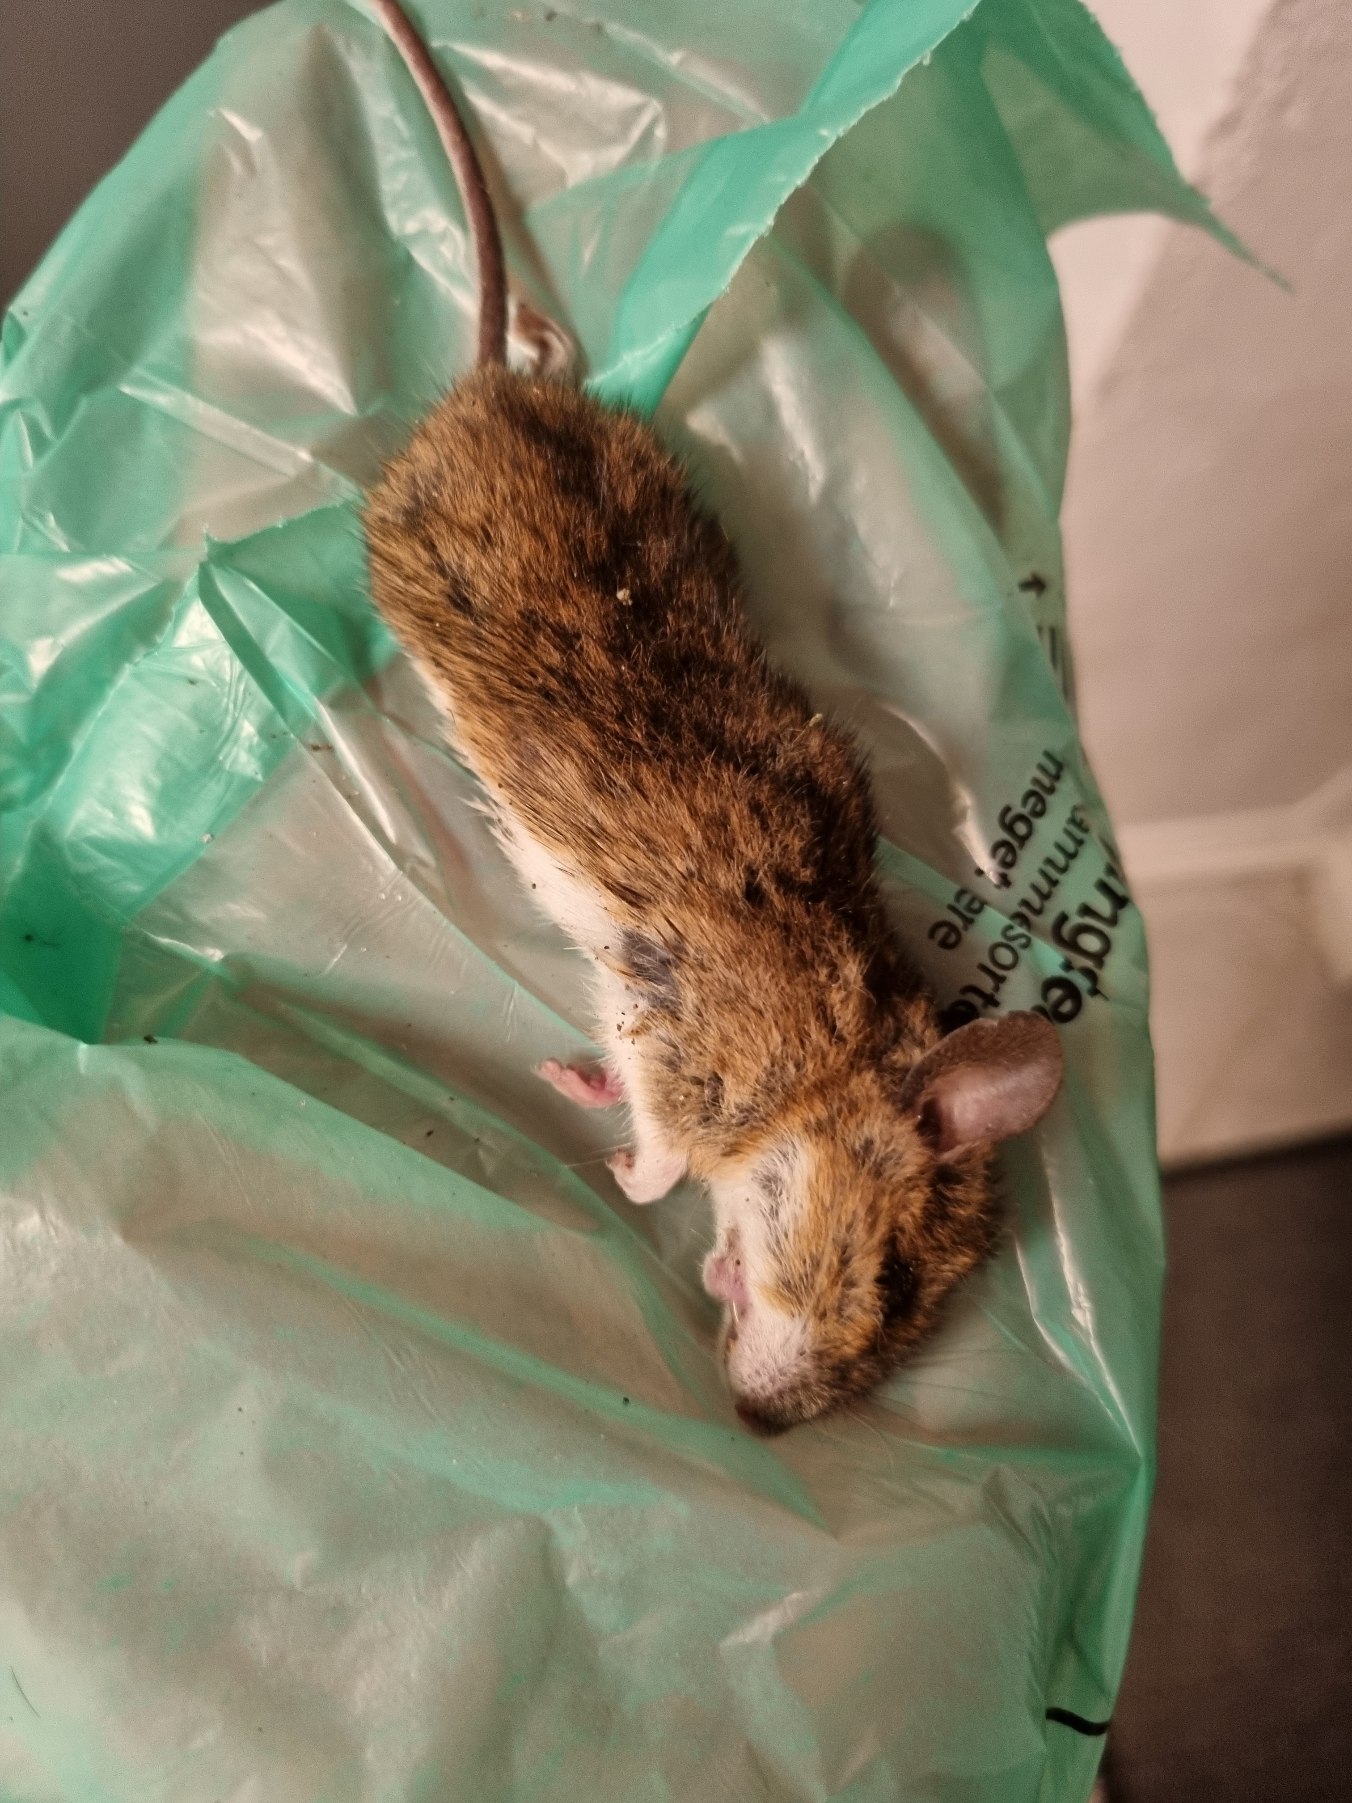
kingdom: Animalia
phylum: Chordata
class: Mammalia
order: Rodentia
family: Muridae
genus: Apodemus
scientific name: Apodemus flavicollis
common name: Halsbåndmus
